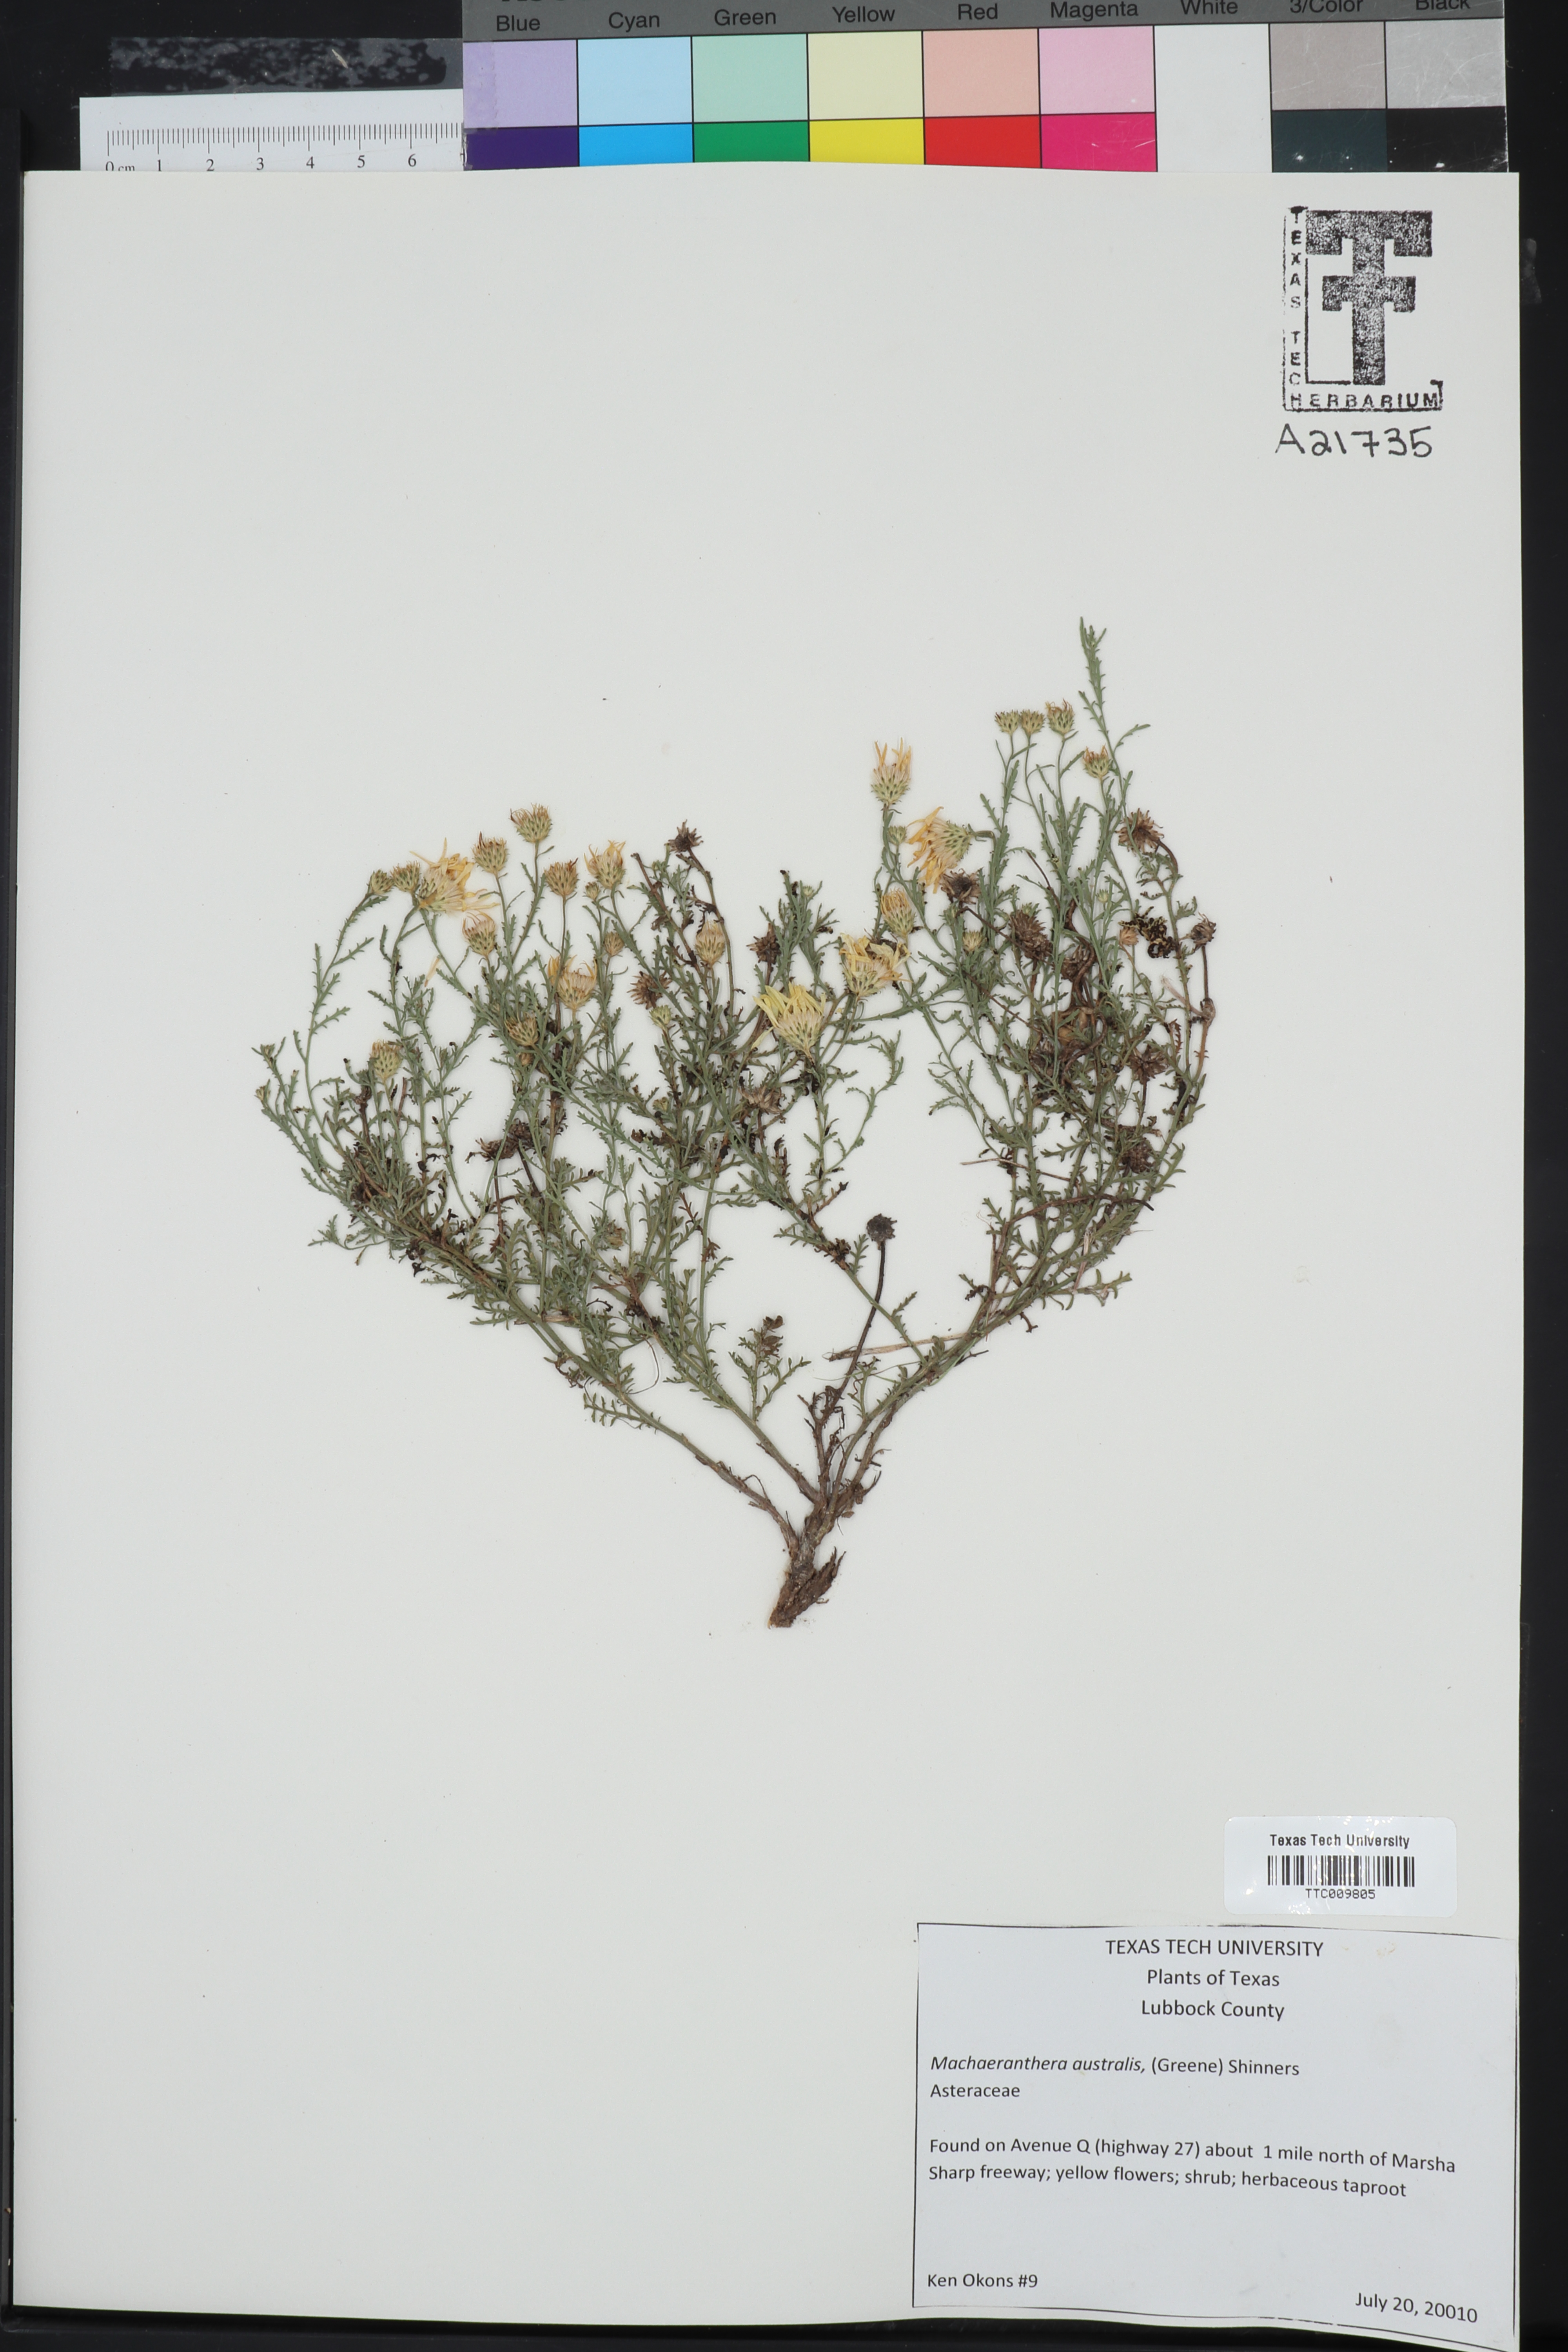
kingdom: Plantae
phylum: Tracheophyta
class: Magnoliopsida
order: Asterales
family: Asteraceae
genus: Xanthisma
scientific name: Xanthisma spinulosum
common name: Spiny goldenweed
